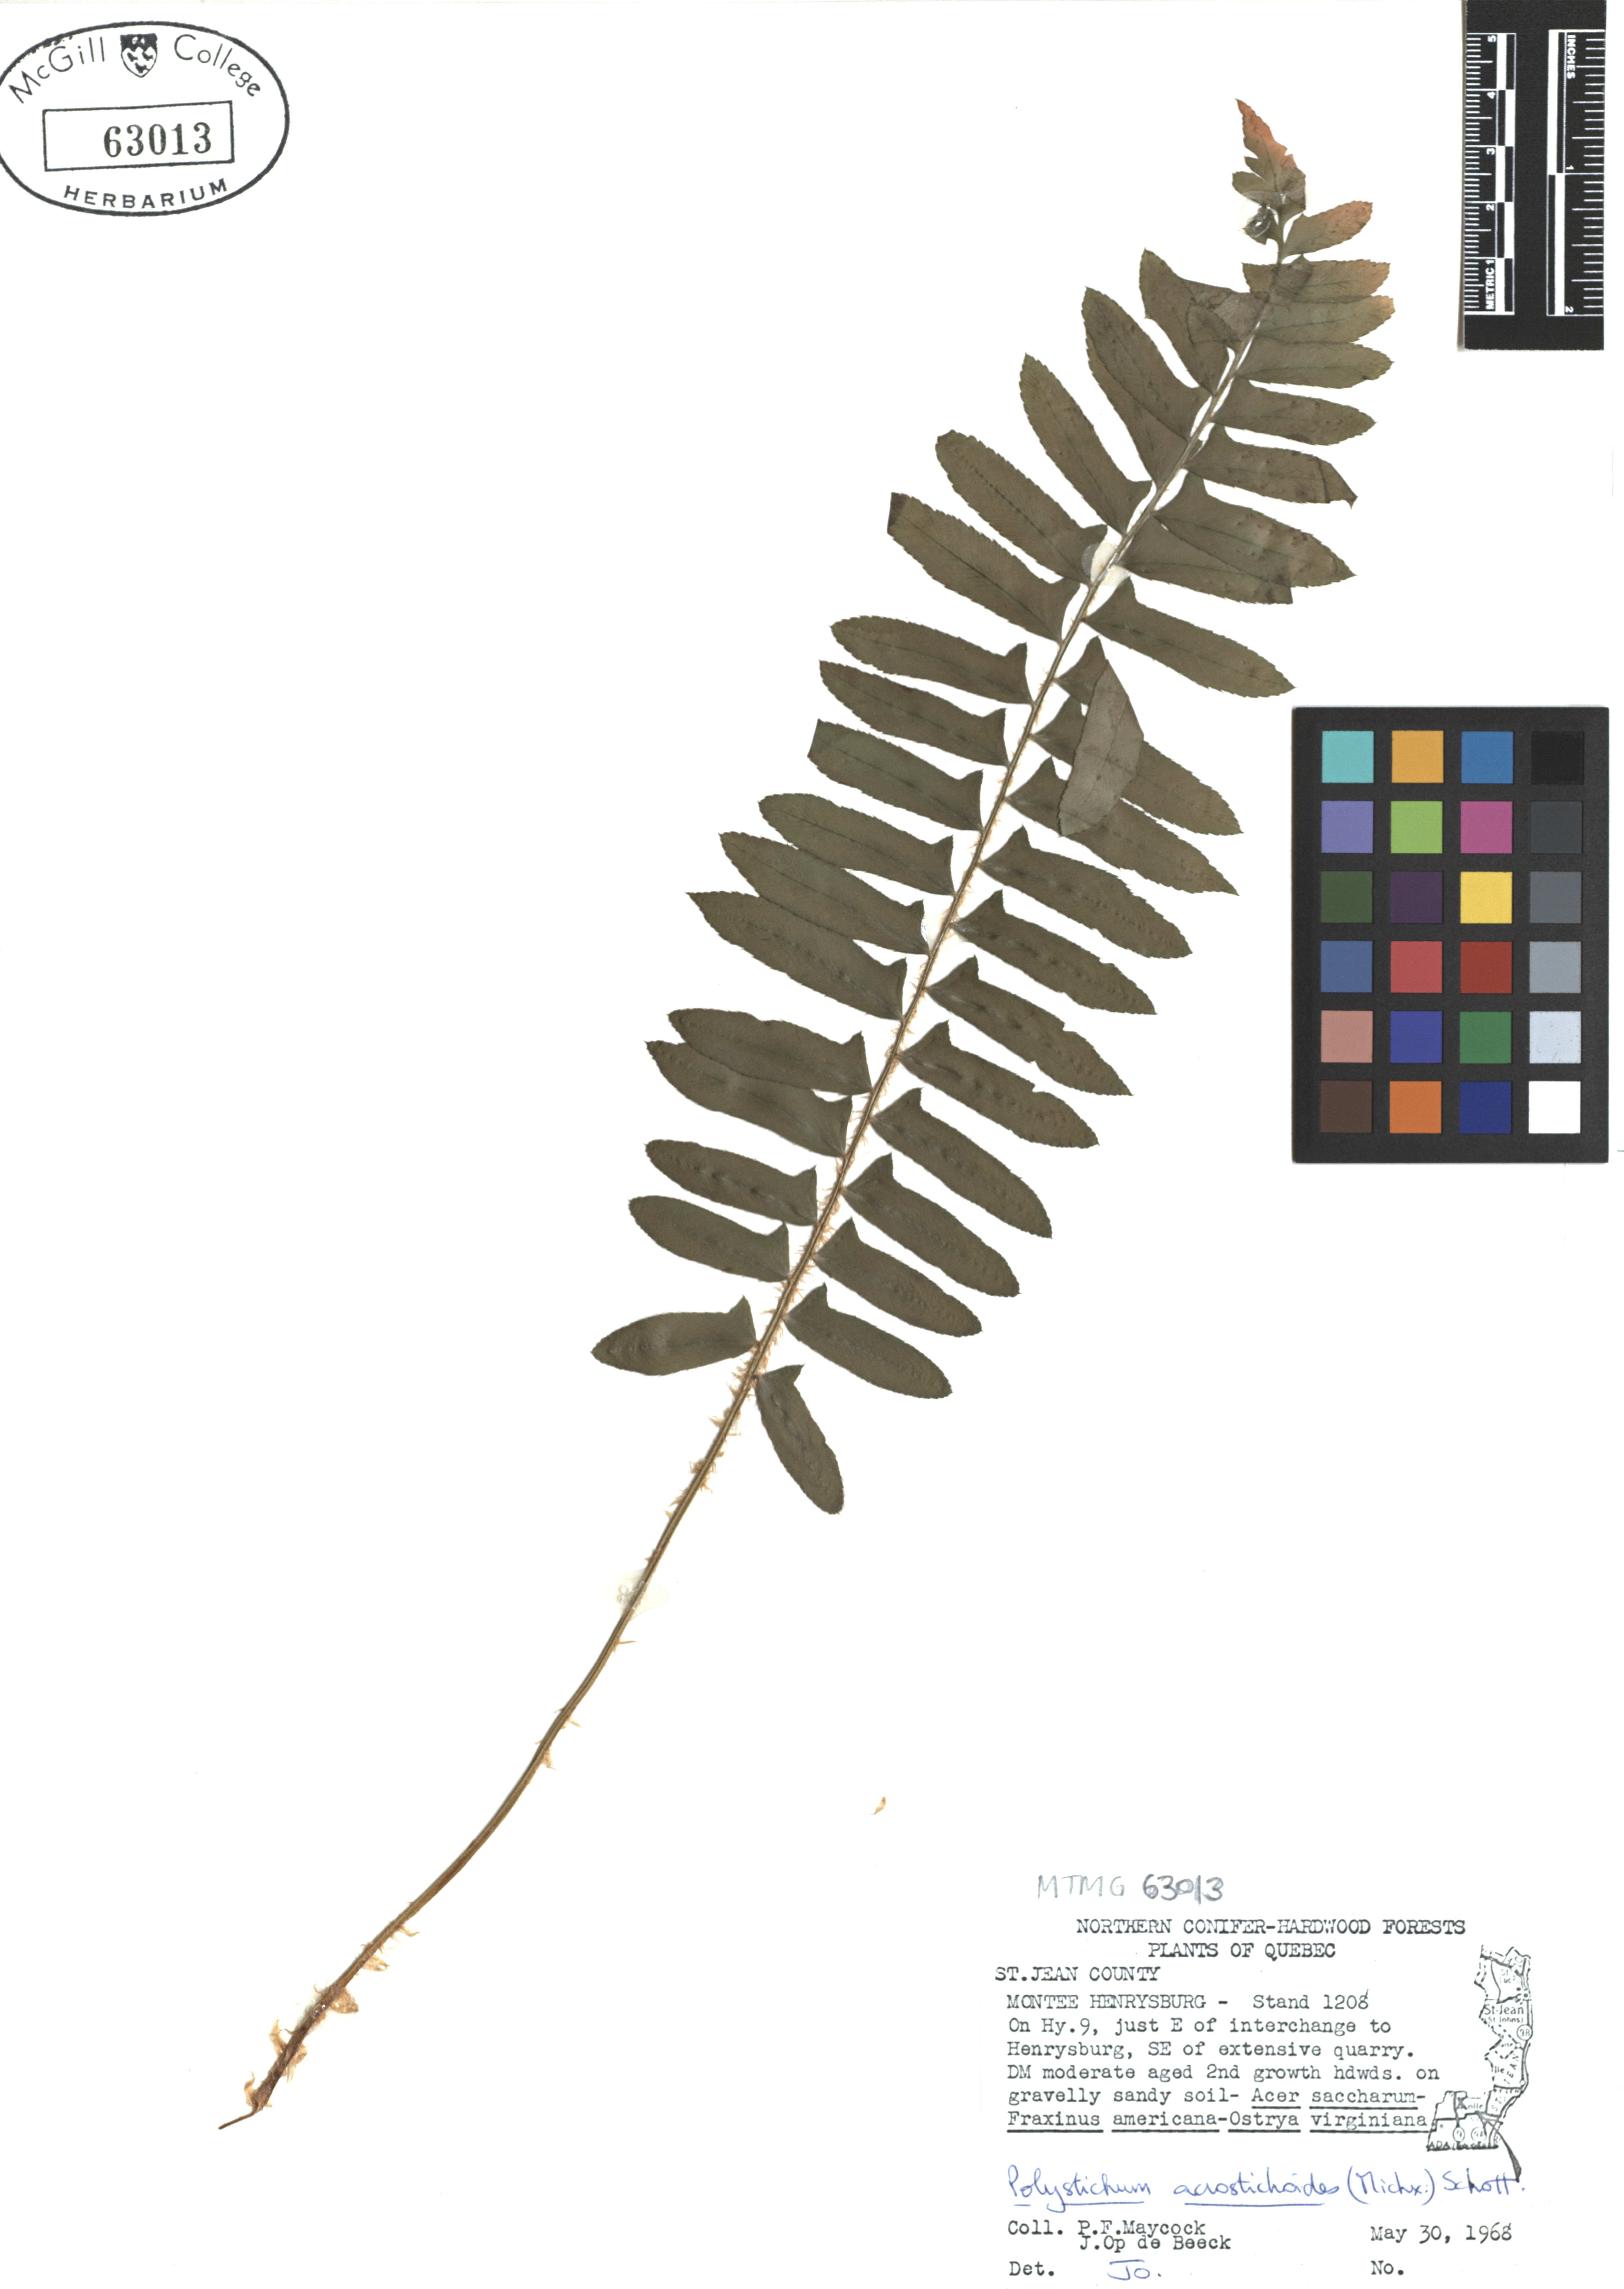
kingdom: Plantae
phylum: Tracheophyta
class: Polypodiopsida
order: Polypodiales
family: Dryopteridaceae
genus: Polystichum
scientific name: Polystichum acrostichoides
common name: Christmas fern
